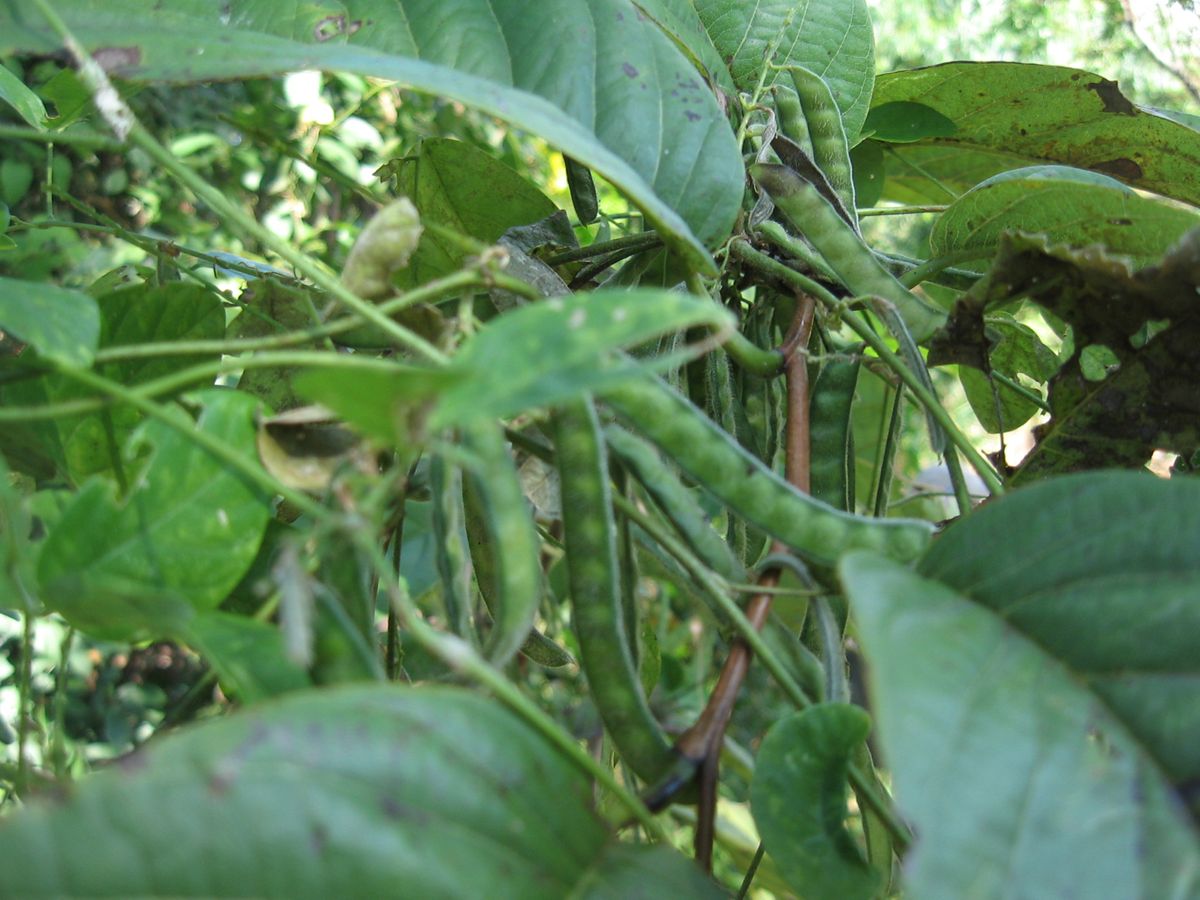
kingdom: Plantae
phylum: Tracheophyta
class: Magnoliopsida
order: Fabales
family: Fabaceae
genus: Galactia
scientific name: Galactia striata
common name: Florida hammock milkpea
